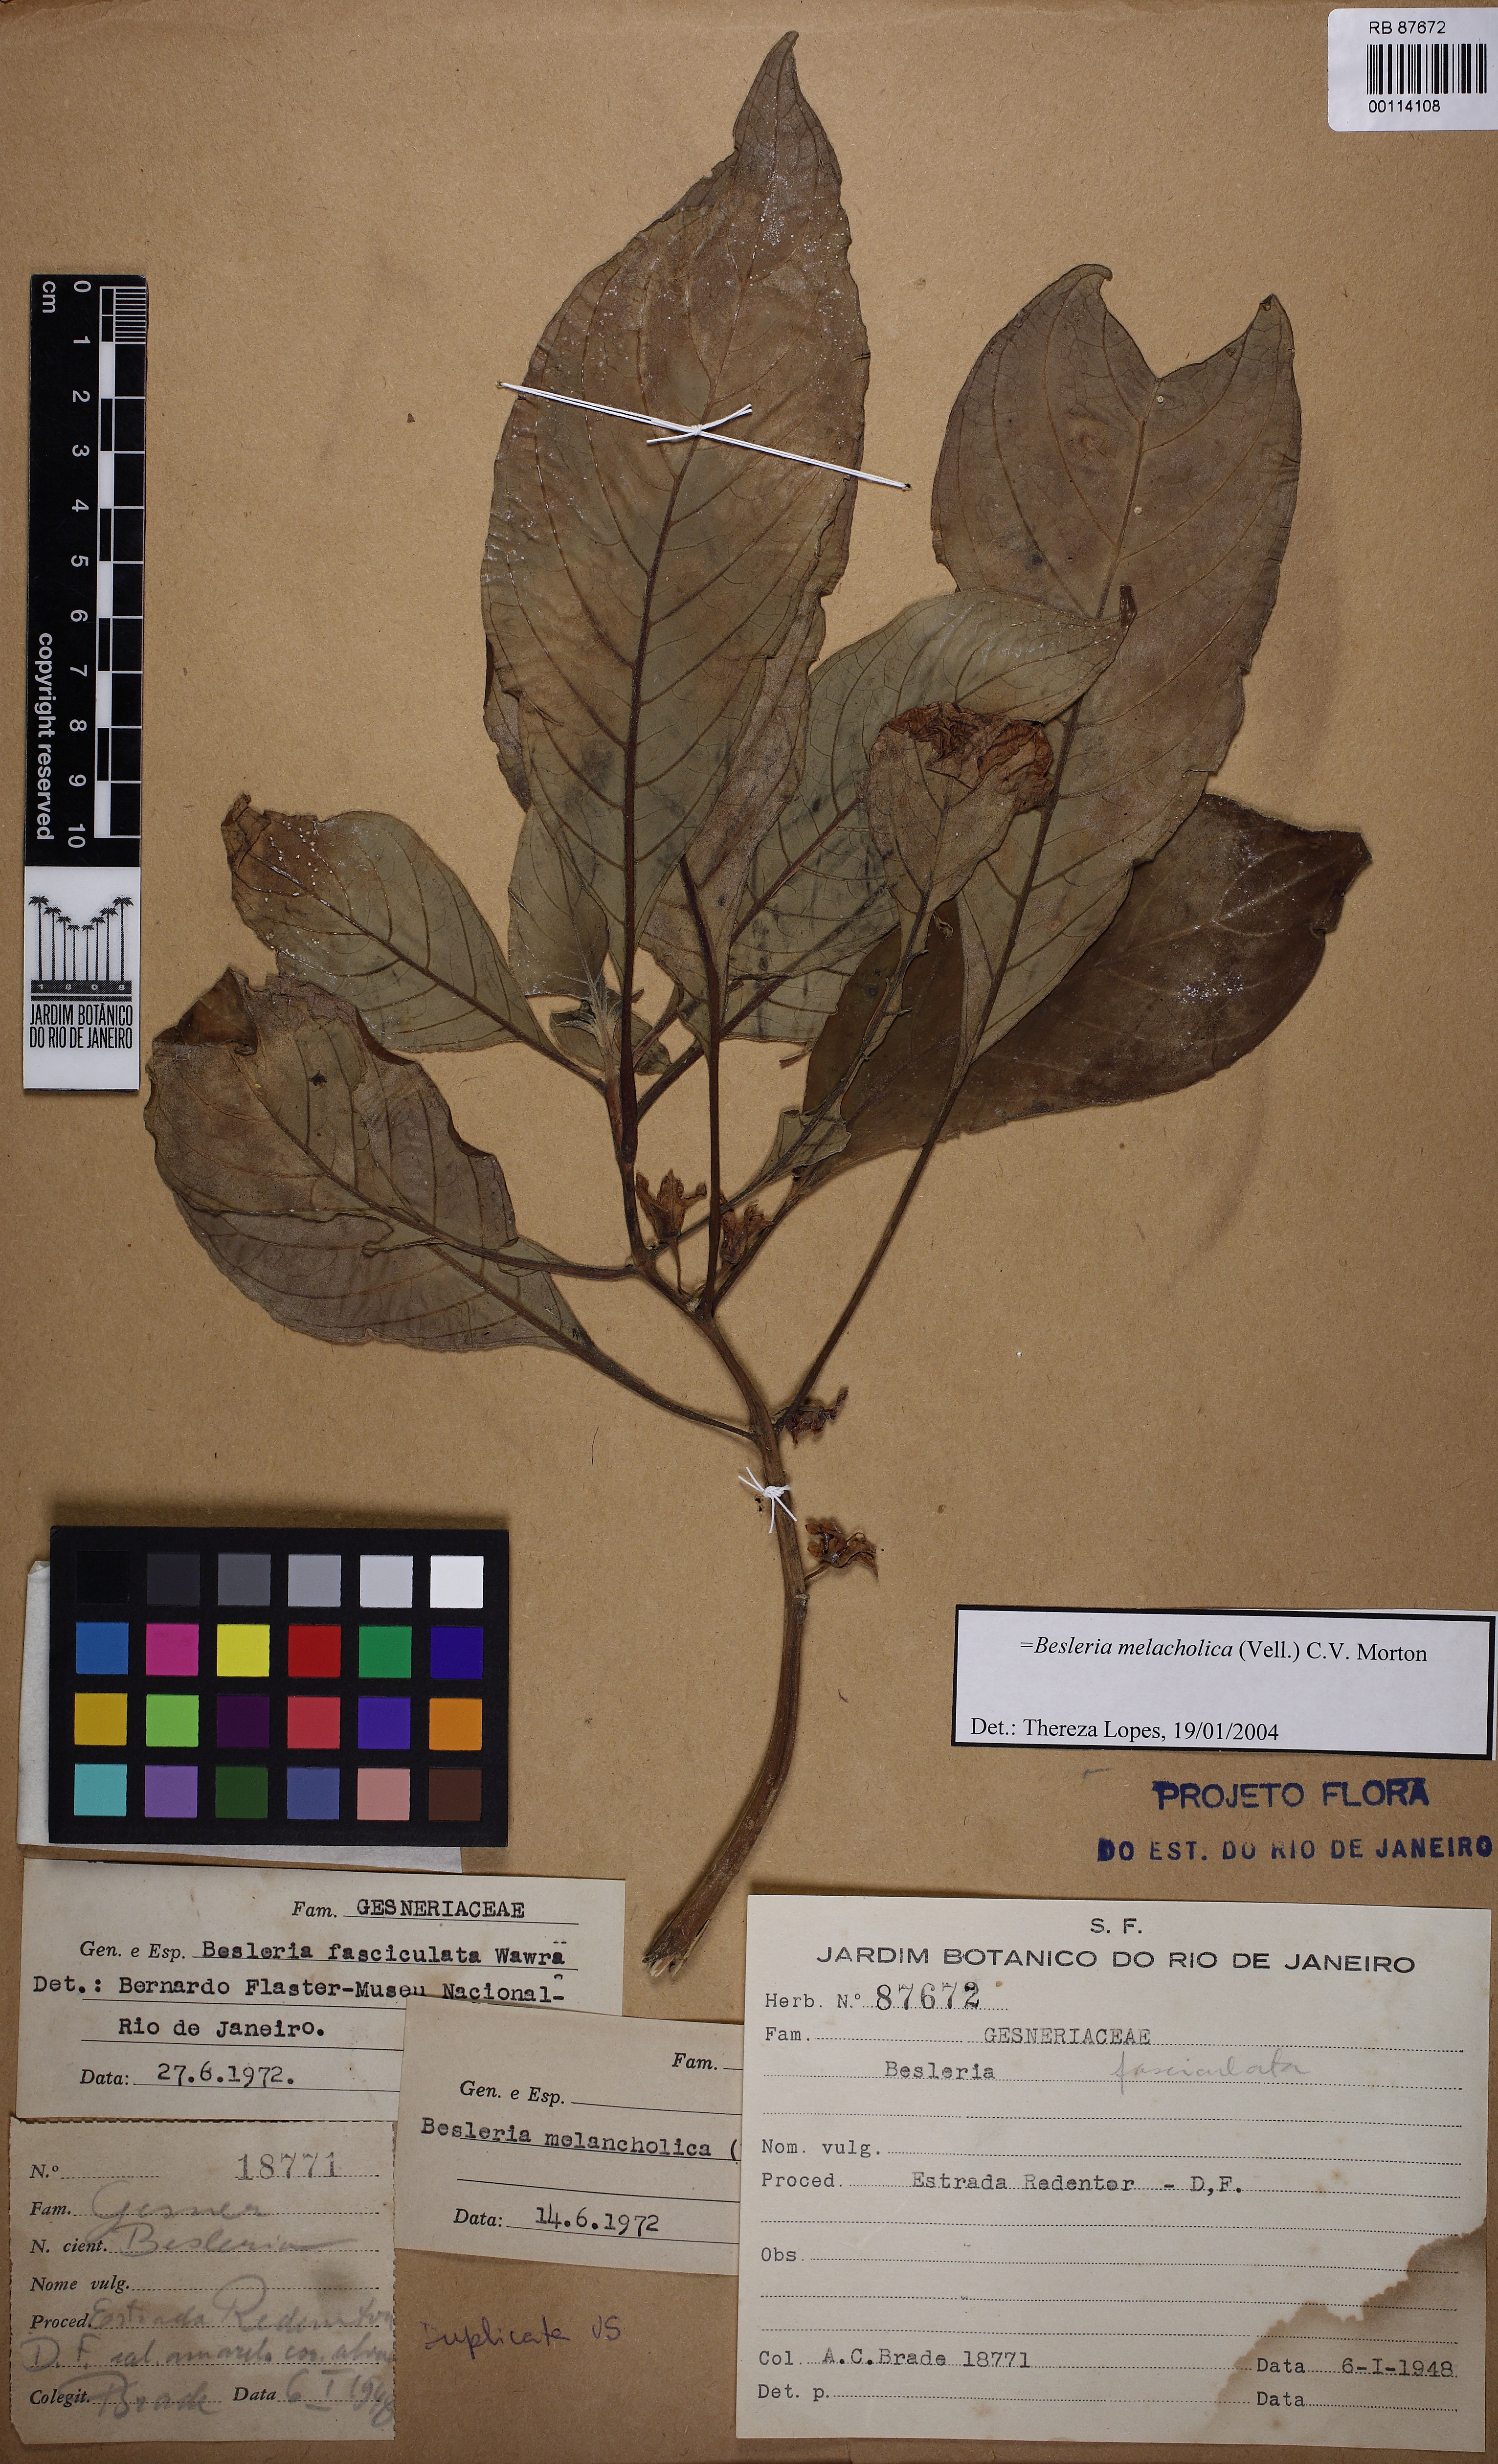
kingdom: Plantae
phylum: Tracheophyta
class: Magnoliopsida
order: Lamiales
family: Gesneriaceae
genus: Besleria
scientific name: Besleria melancholica
